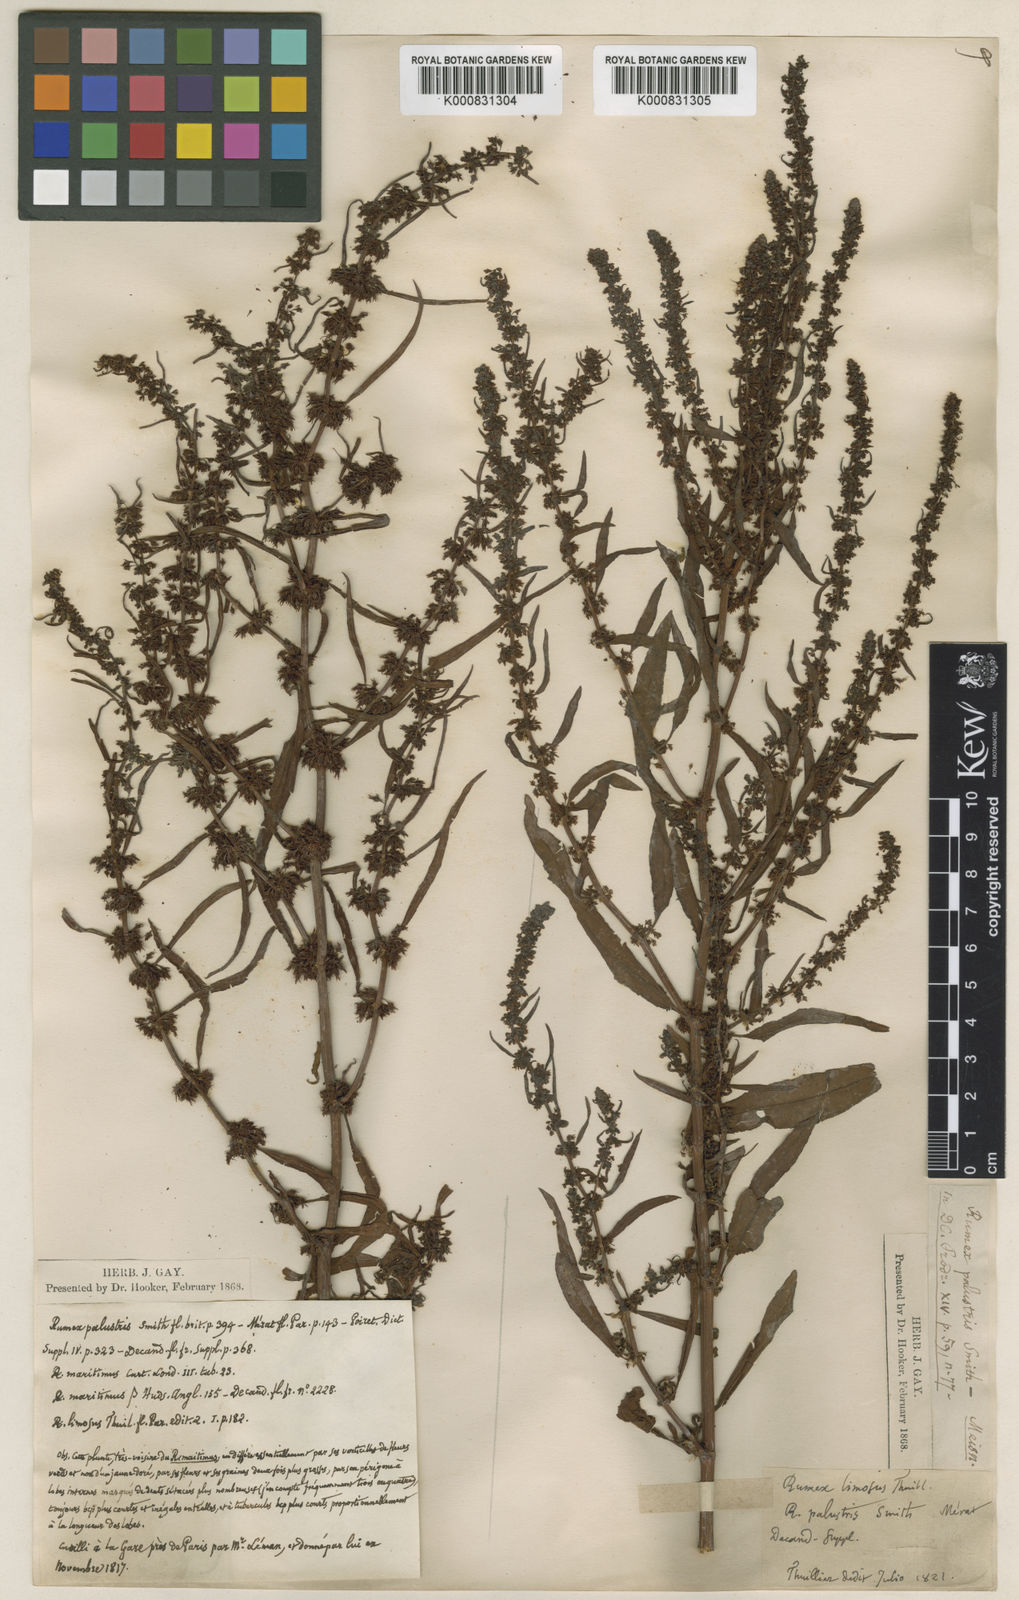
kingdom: Plantae
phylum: Tracheophyta
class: Magnoliopsida
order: Caryophyllales
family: Polygonaceae
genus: Rumex
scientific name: Rumex palustris
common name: Marsh dock
